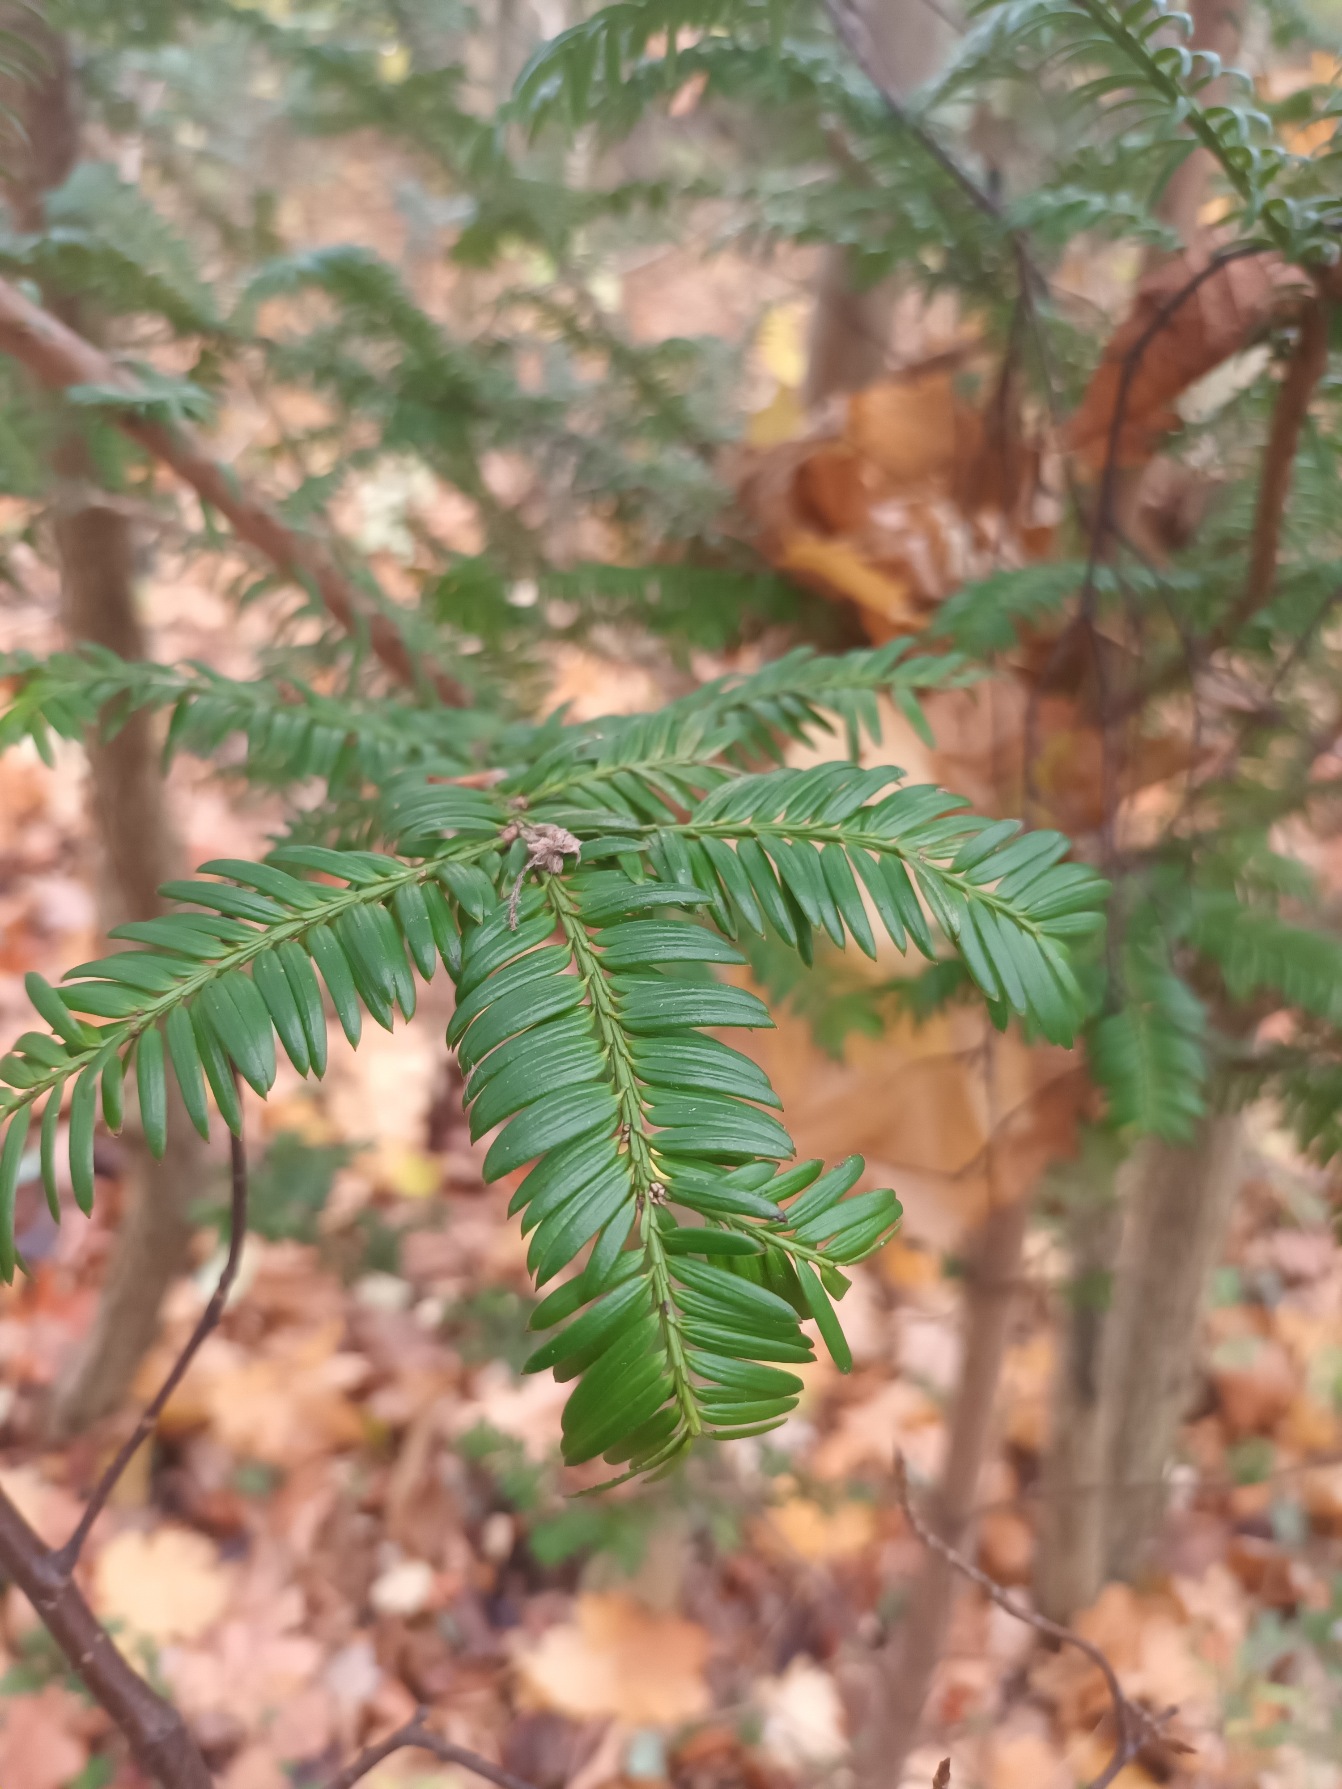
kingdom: Plantae
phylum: Tracheophyta
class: Pinopsida
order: Pinales
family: Taxaceae
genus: Taxus
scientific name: Taxus baccata
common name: Almindelig taks
